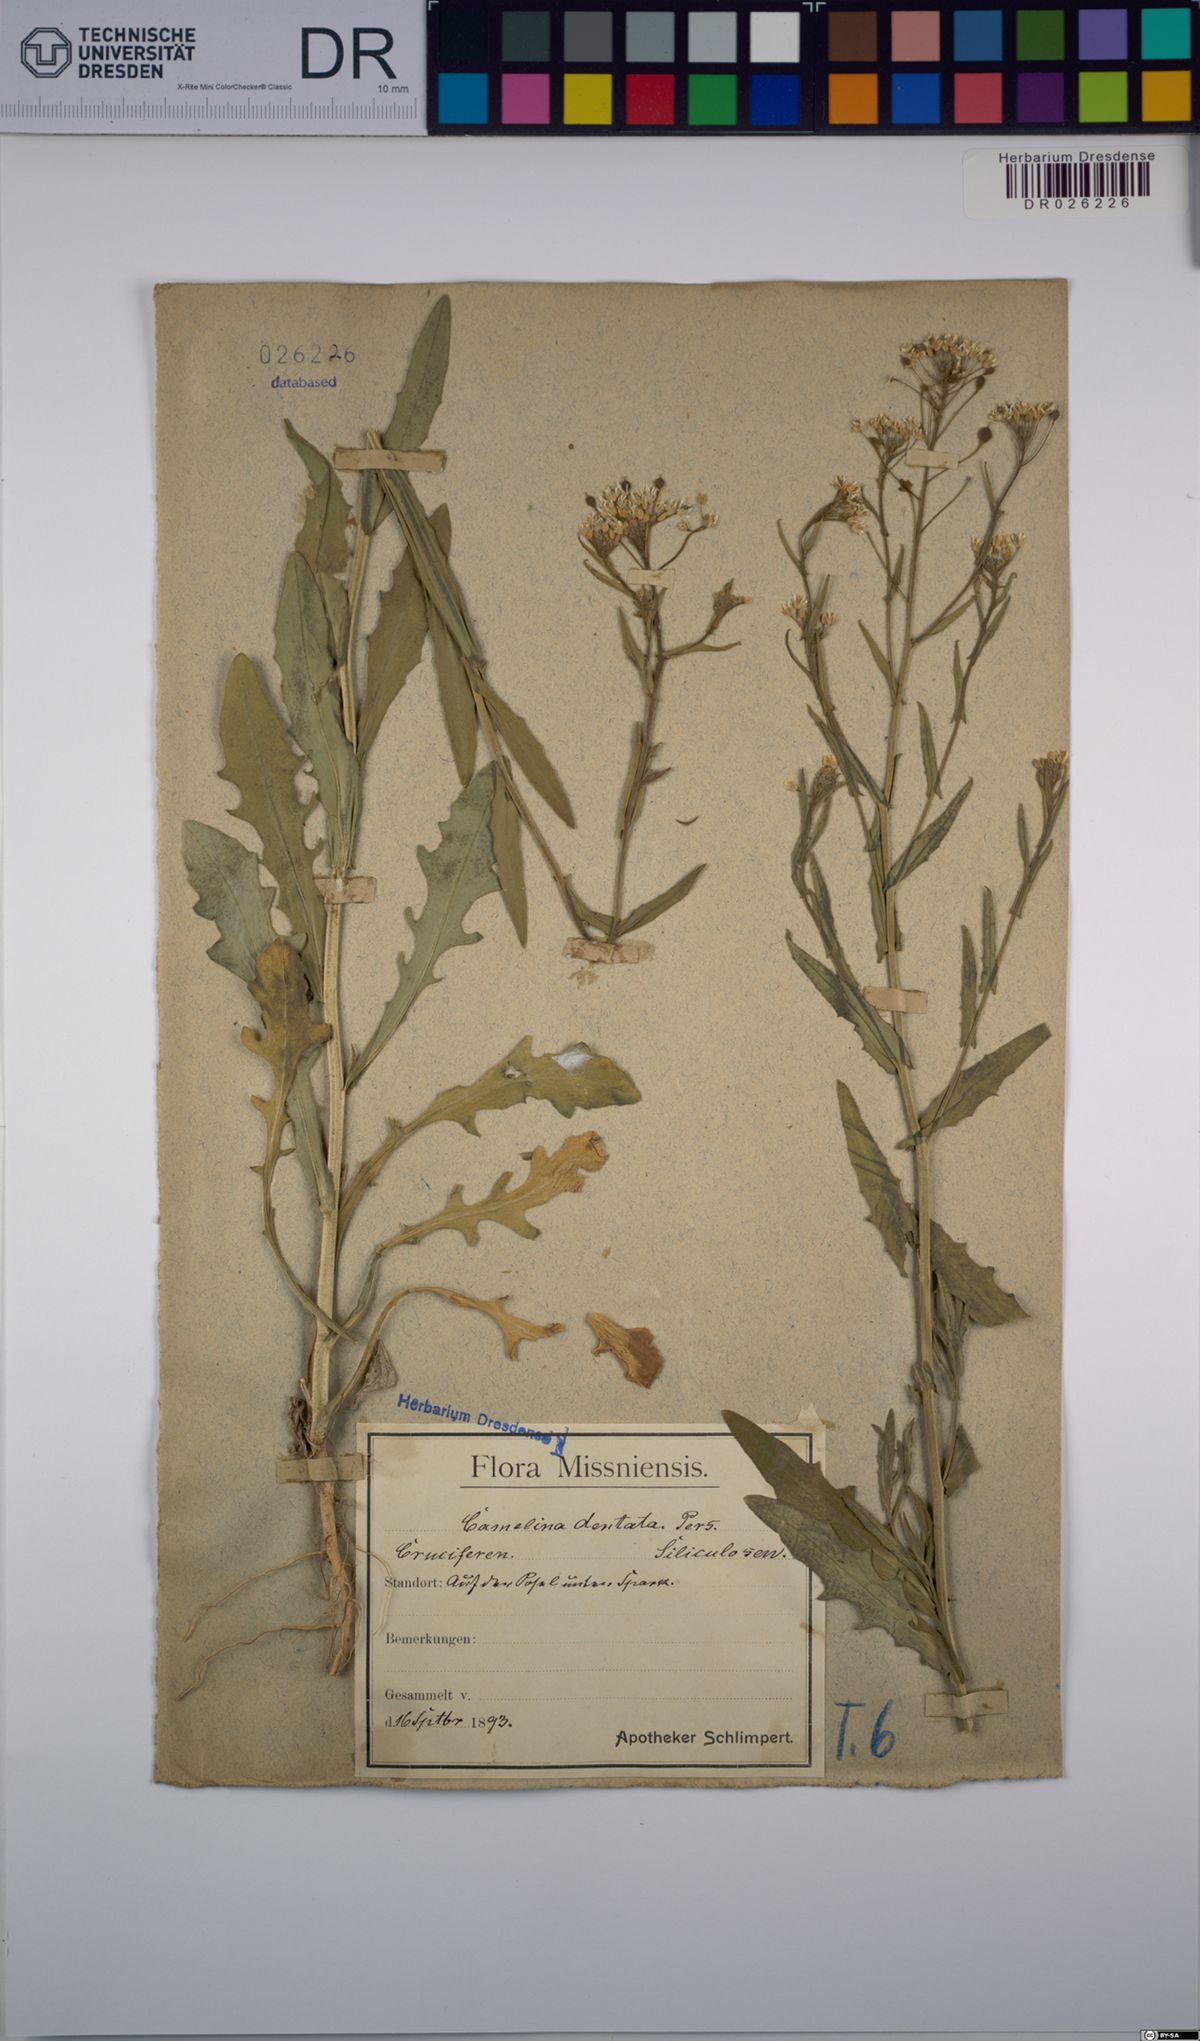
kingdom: Plantae
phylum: Tracheophyta
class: Magnoliopsida
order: Brassicales
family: Brassicaceae
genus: Camelina
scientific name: Camelina alyssum
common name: Gold-of-pleasure
